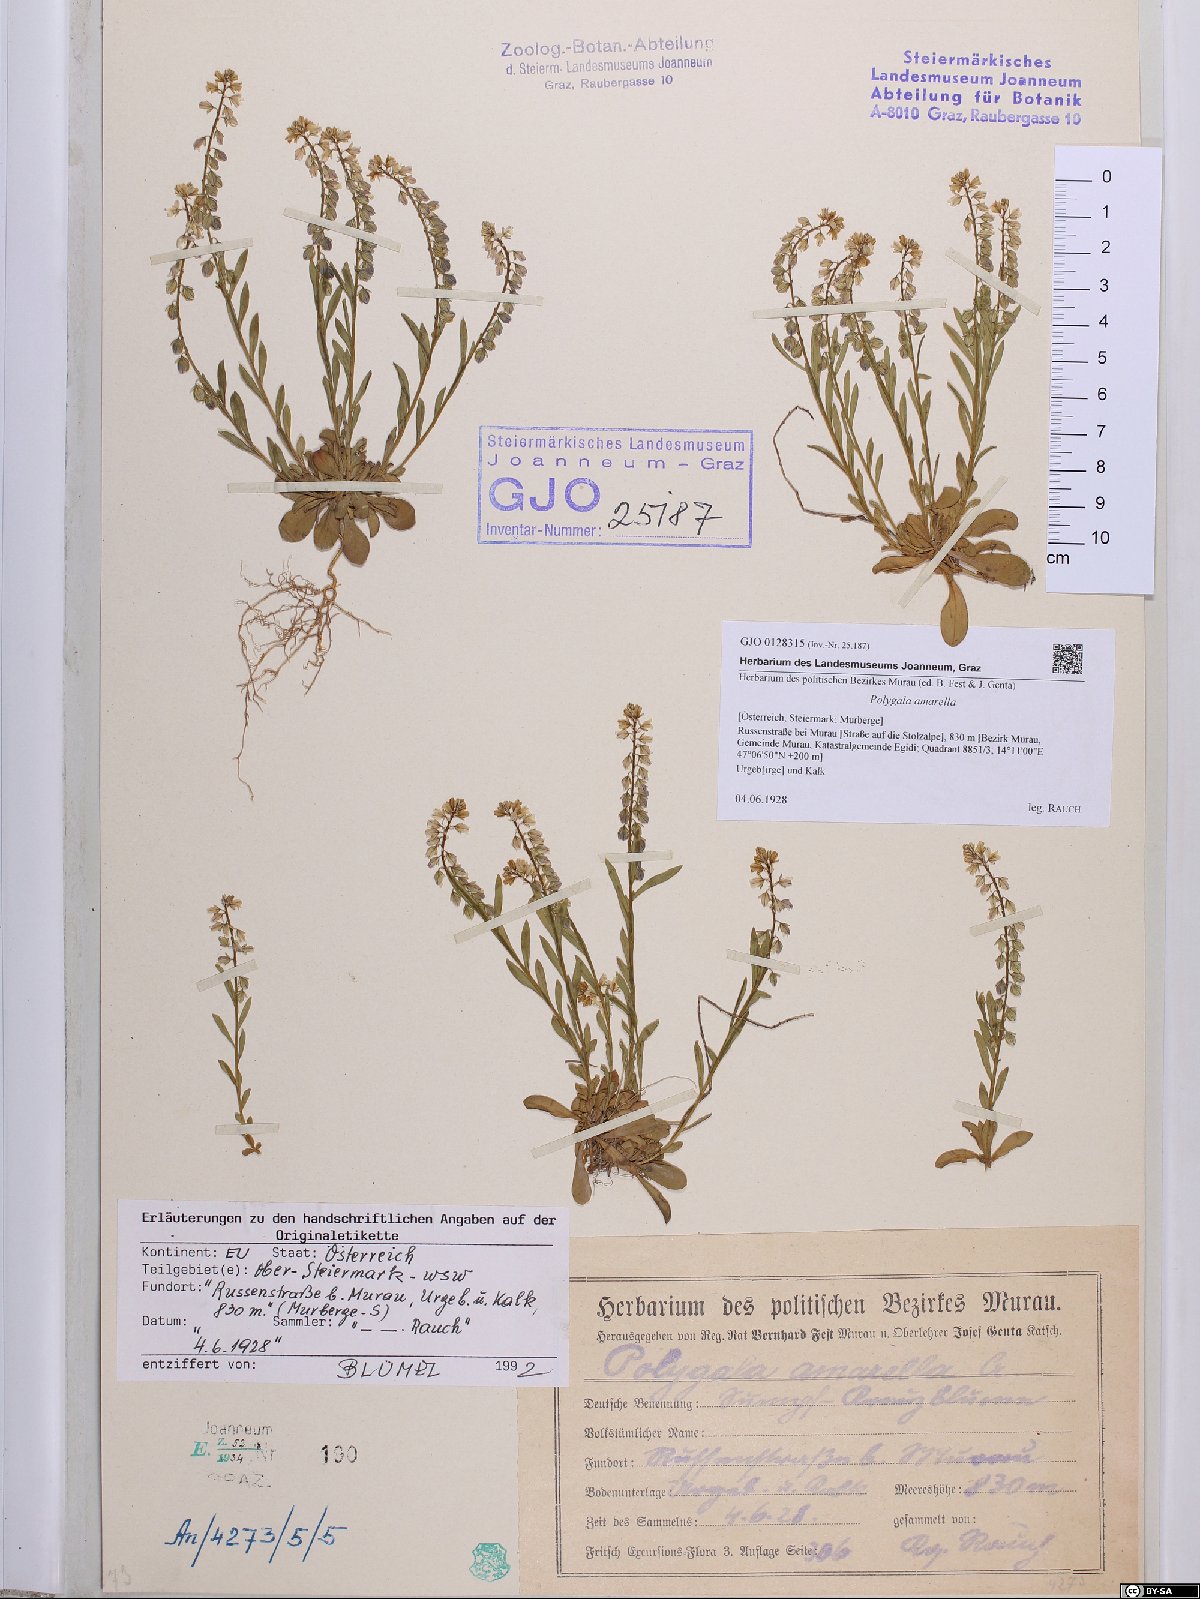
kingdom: Plantae
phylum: Tracheophyta
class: Magnoliopsida
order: Fabales
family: Polygalaceae
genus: Polygala
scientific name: Polygala amarella
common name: Dwarf milkwort
